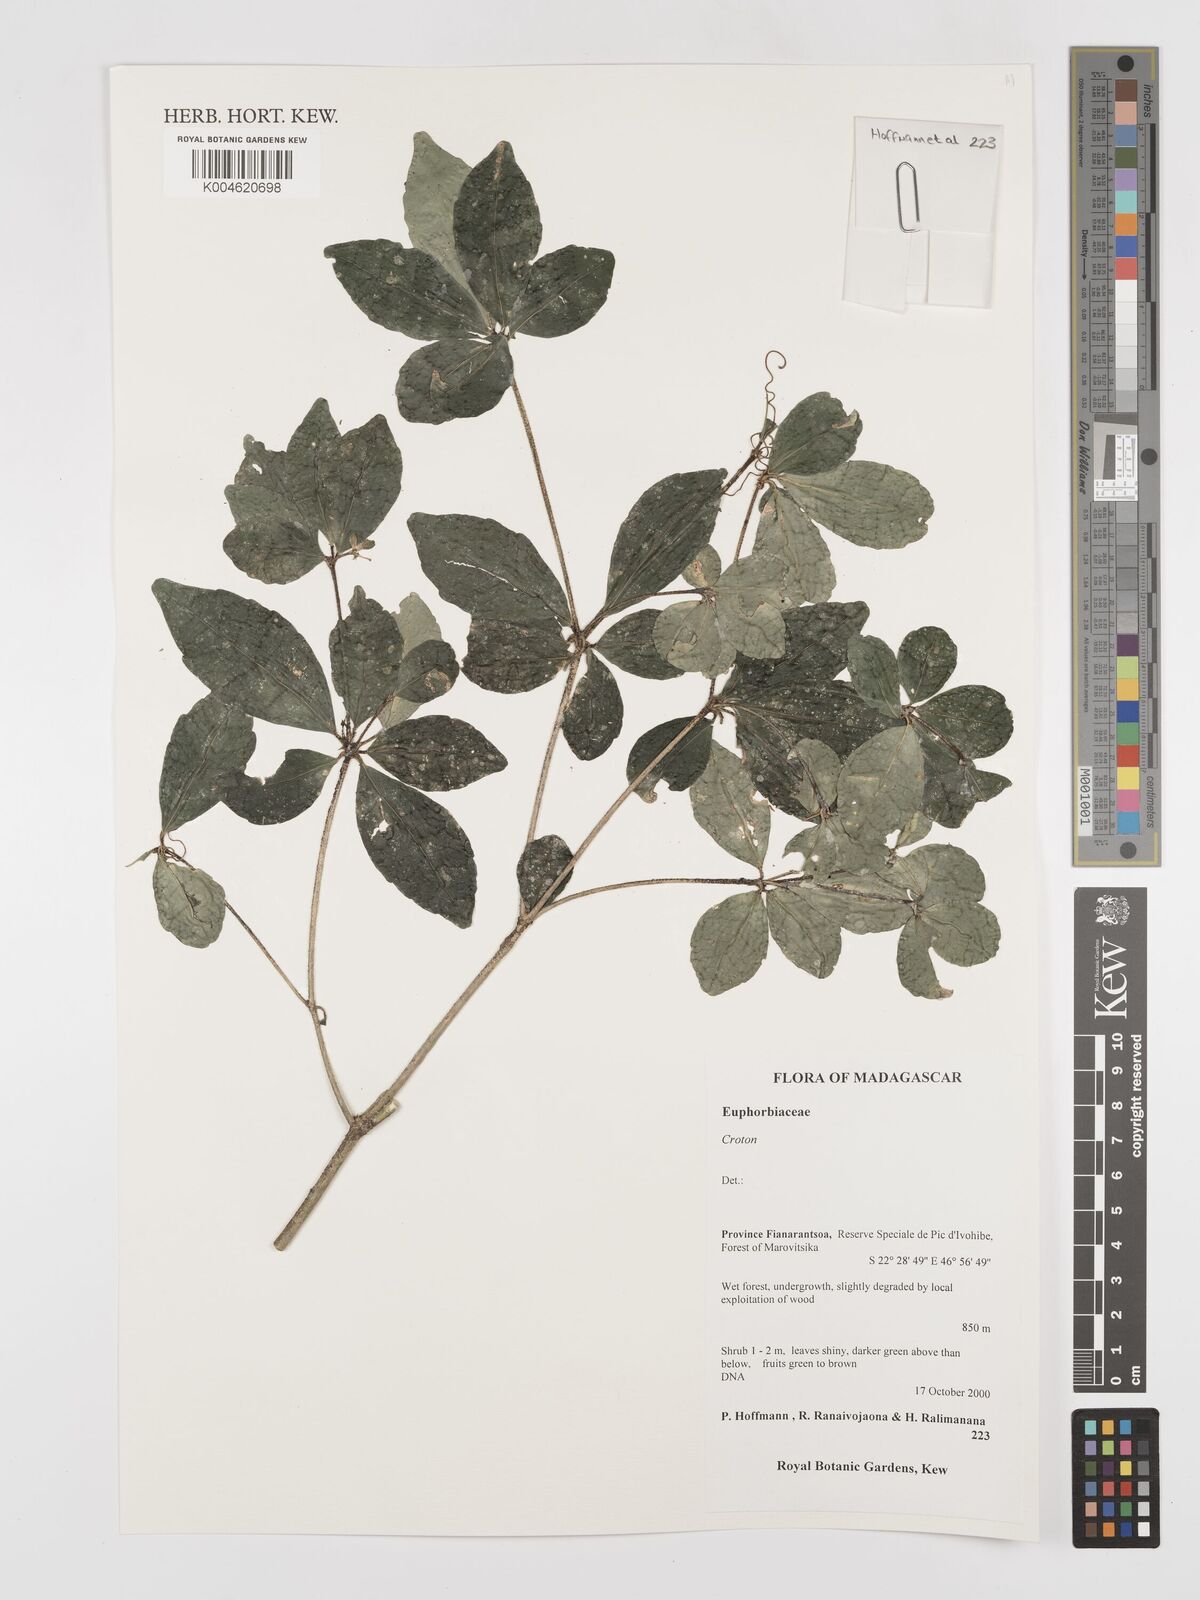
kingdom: Plantae
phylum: Tracheophyta
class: Magnoliopsida
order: Malpighiales
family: Euphorbiaceae
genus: Croton
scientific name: Croton
